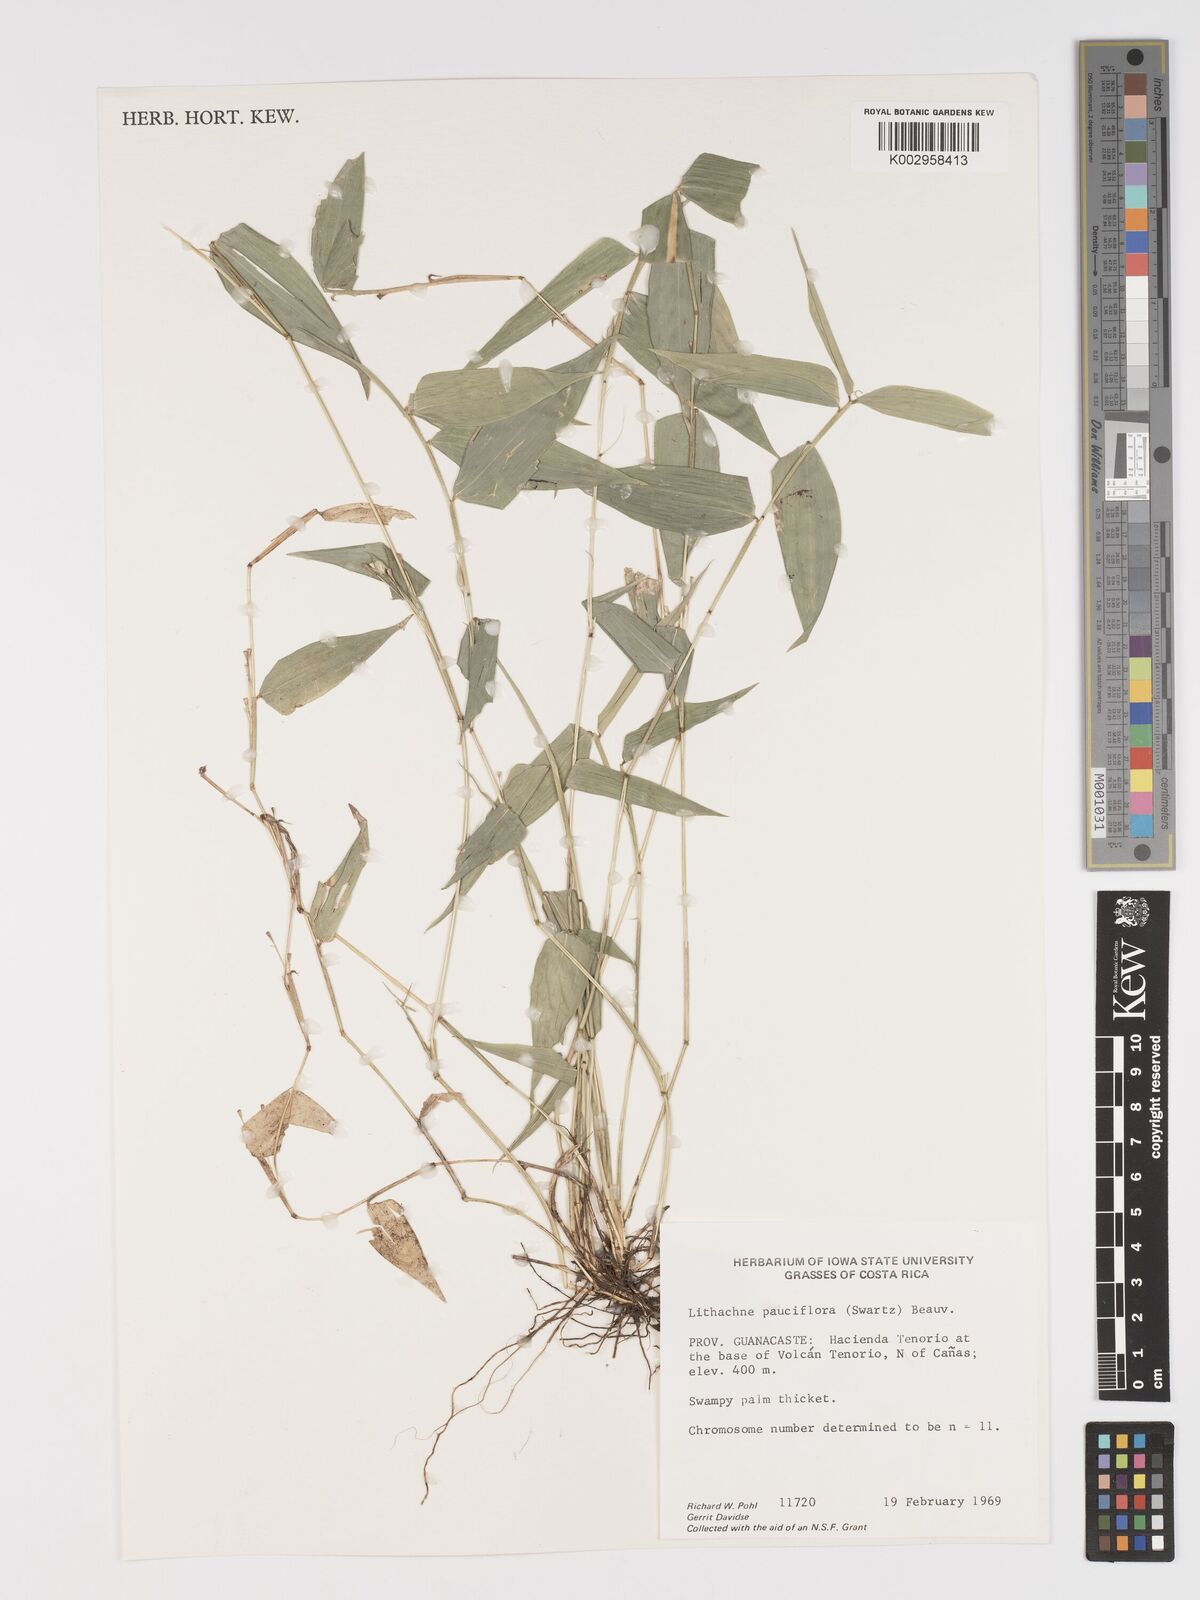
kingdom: Plantae
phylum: Tracheophyta
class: Liliopsida
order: Poales
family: Poaceae
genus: Lithachne
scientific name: Lithachne pauciflora
